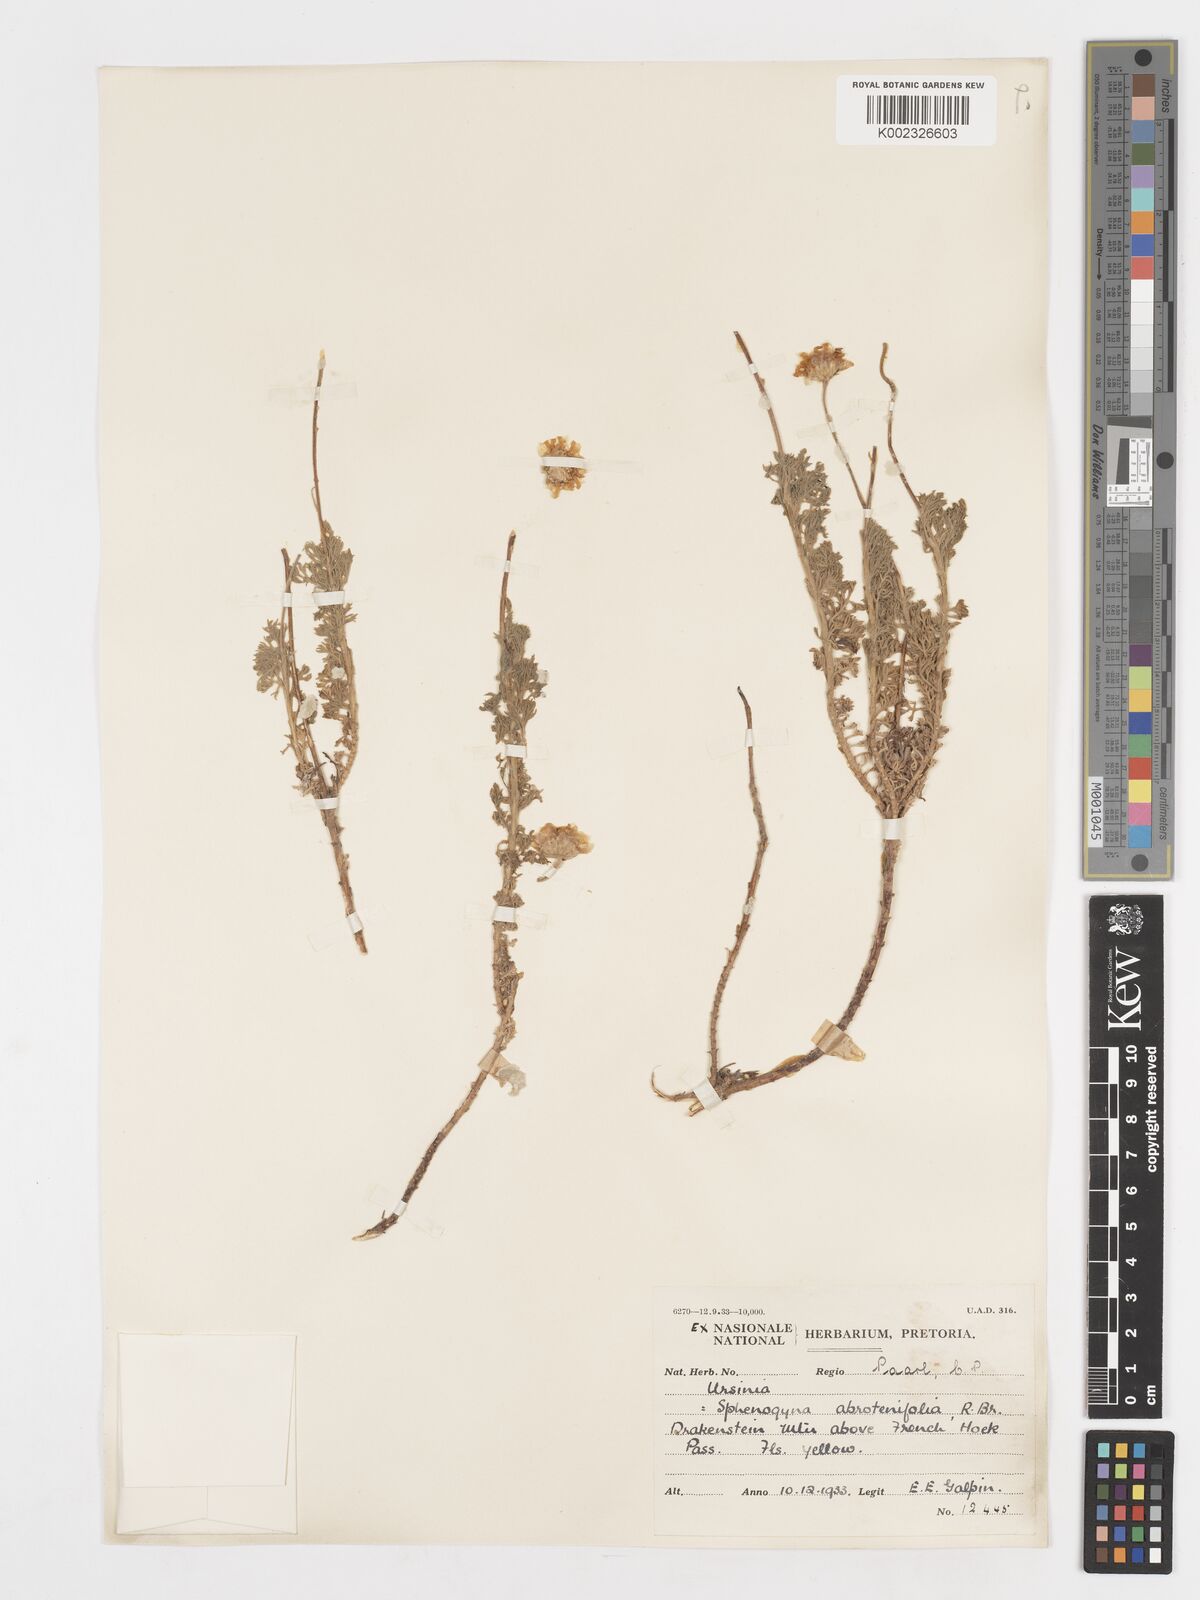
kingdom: Plantae
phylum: Tracheophyta
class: Magnoliopsida
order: Asterales
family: Asteraceae
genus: Ursinia
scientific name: Ursinia abrotanifolia
